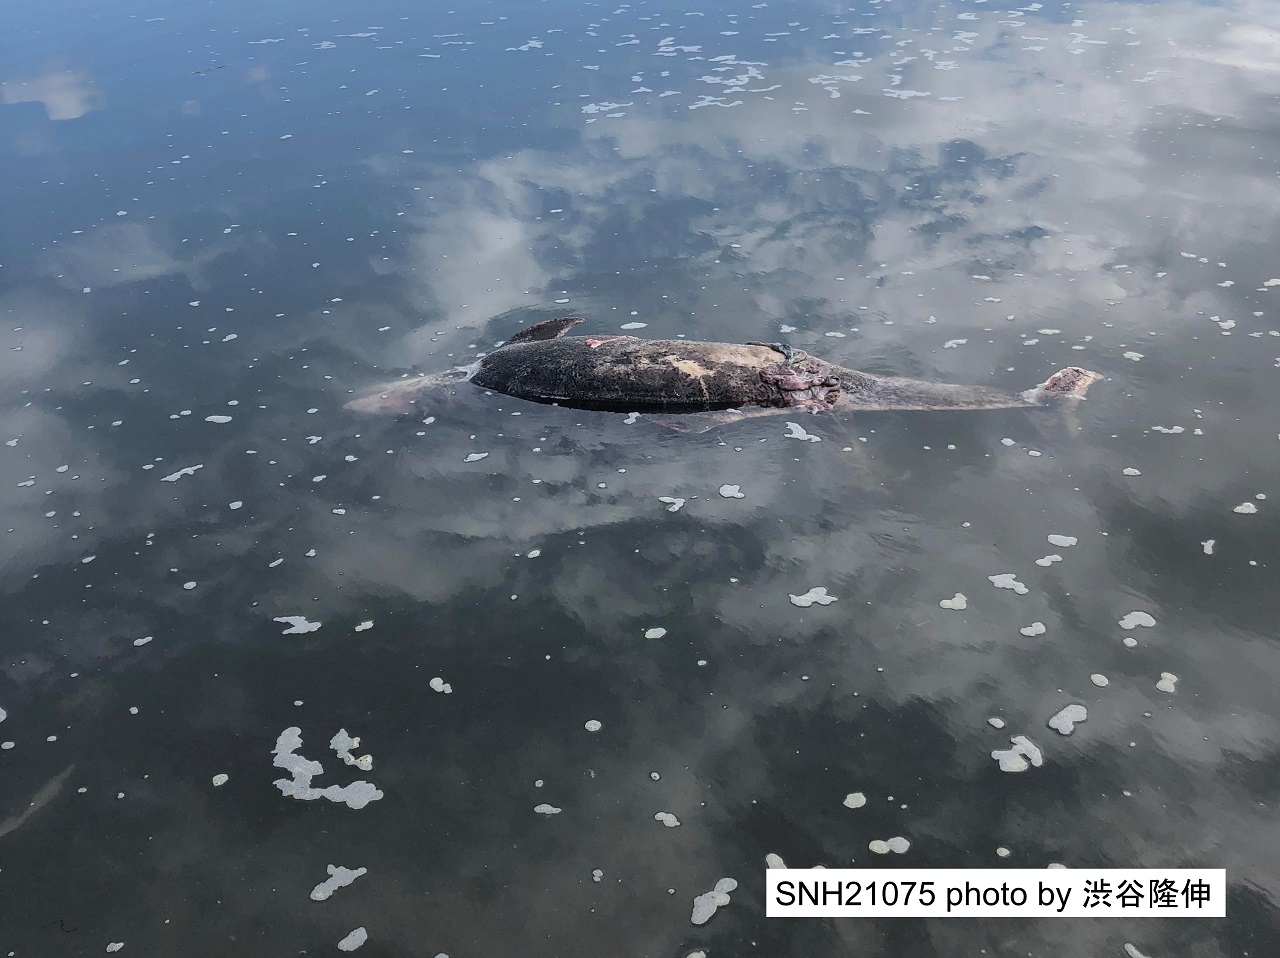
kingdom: Animalia
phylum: Chordata
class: Mammalia
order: Cetacea
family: Phocoenidae
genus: Phocoena
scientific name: Phocoena phocoena
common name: Harbour porpoise
